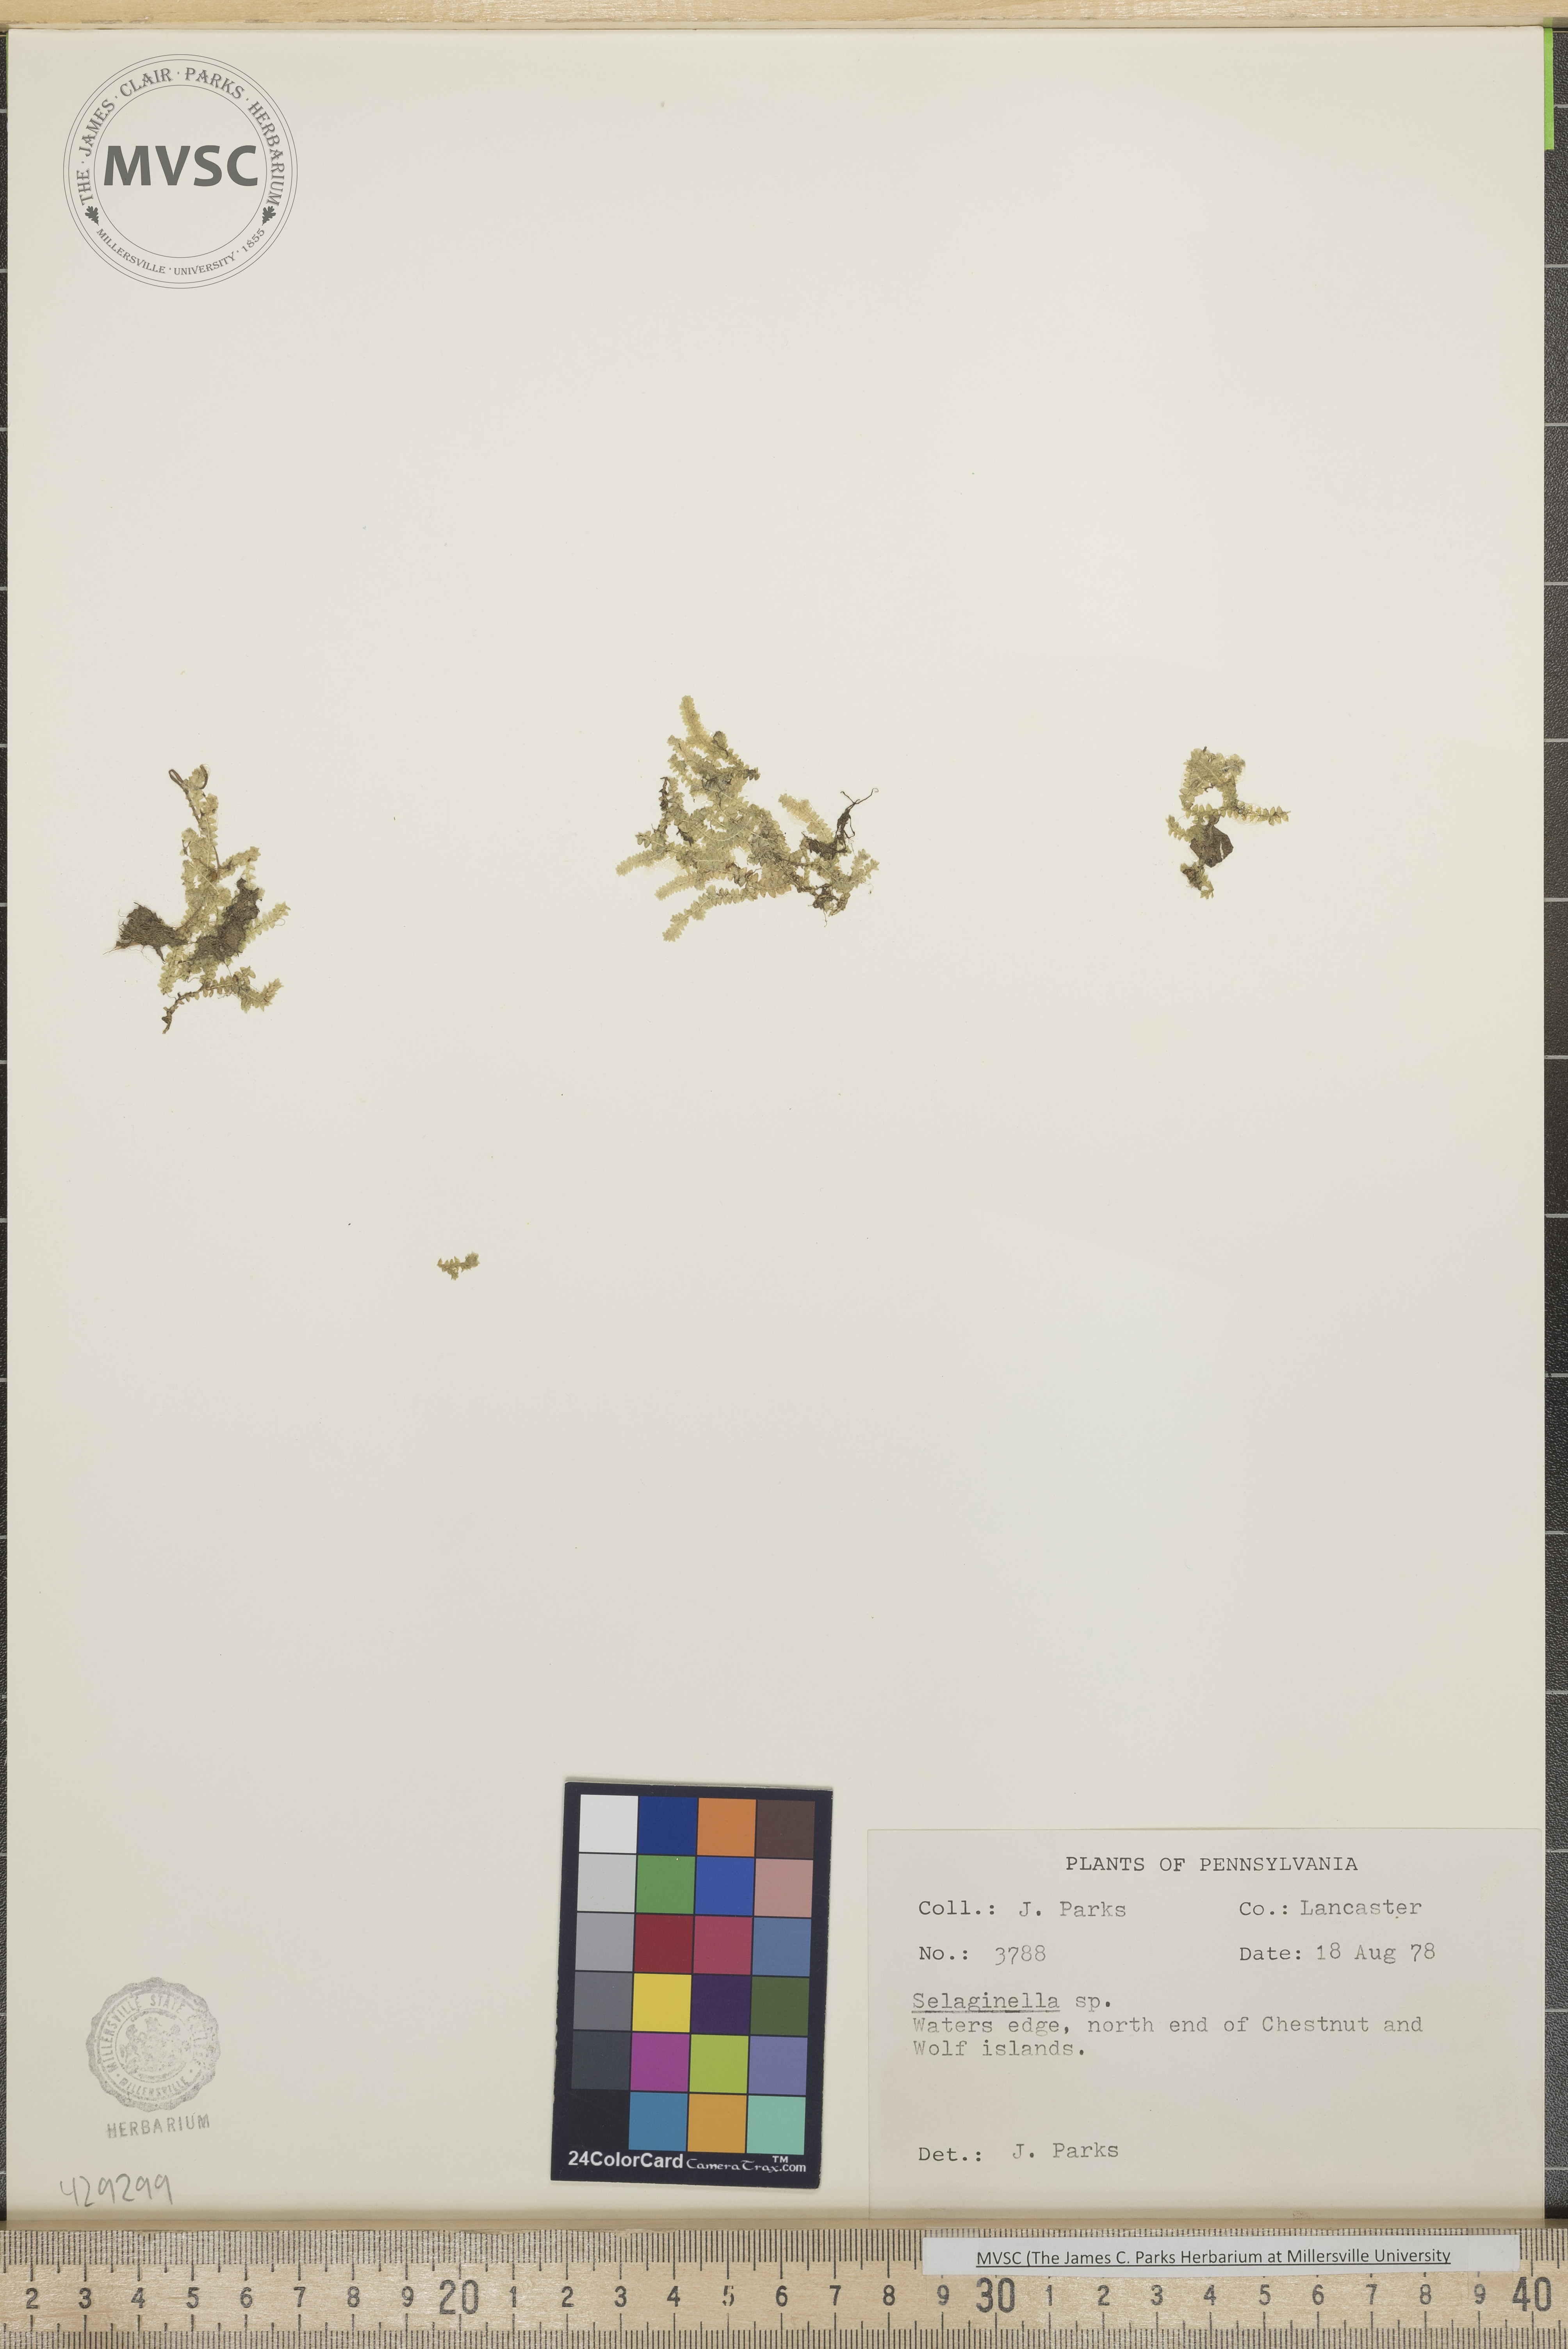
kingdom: Plantae
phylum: Tracheophyta
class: Lycopodiopsida
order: Selaginellales
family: Selaginellaceae
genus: Selaginella
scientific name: Selaginella apoda
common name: Creeping spikemoss
